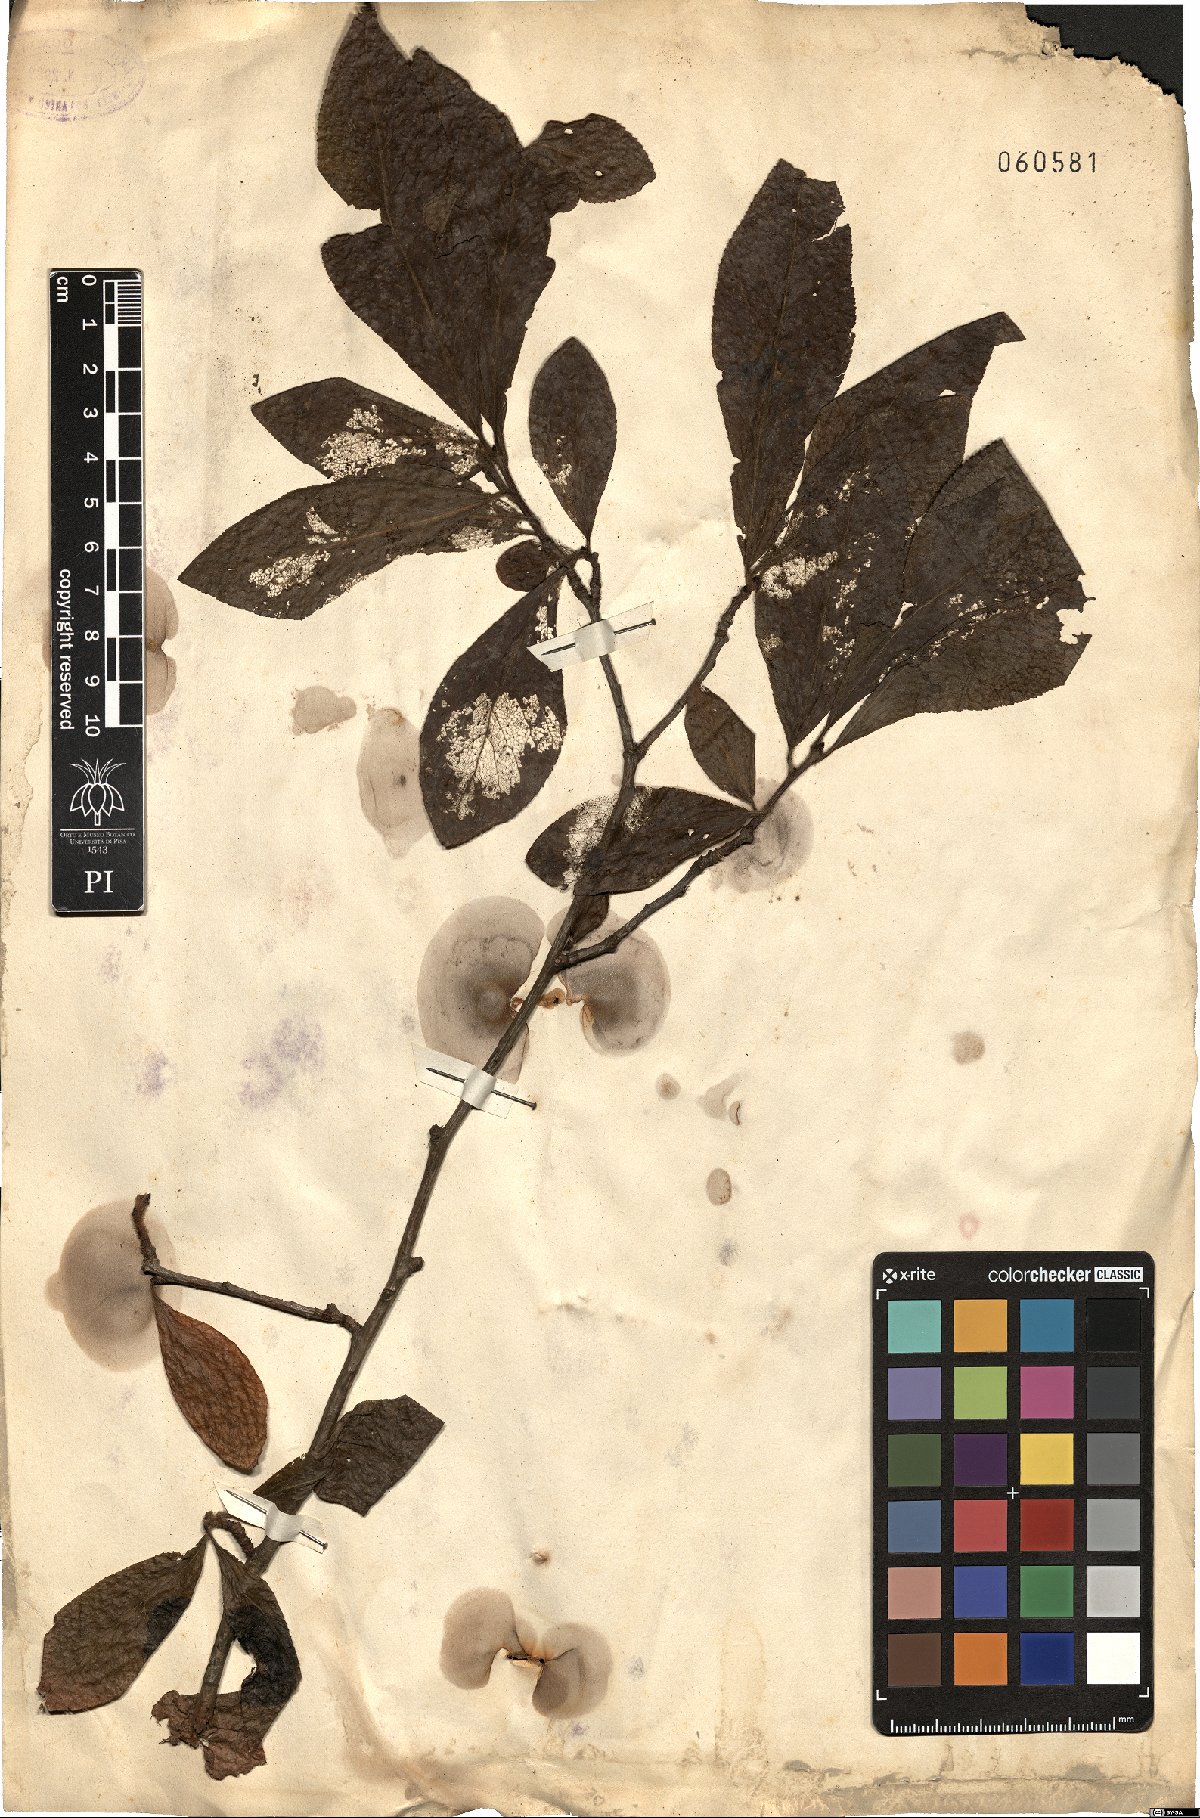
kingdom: Plantae
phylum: Tracheophyta
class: Magnoliopsida
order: Rosales
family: Rosaceae
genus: Prunus
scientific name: Prunus
